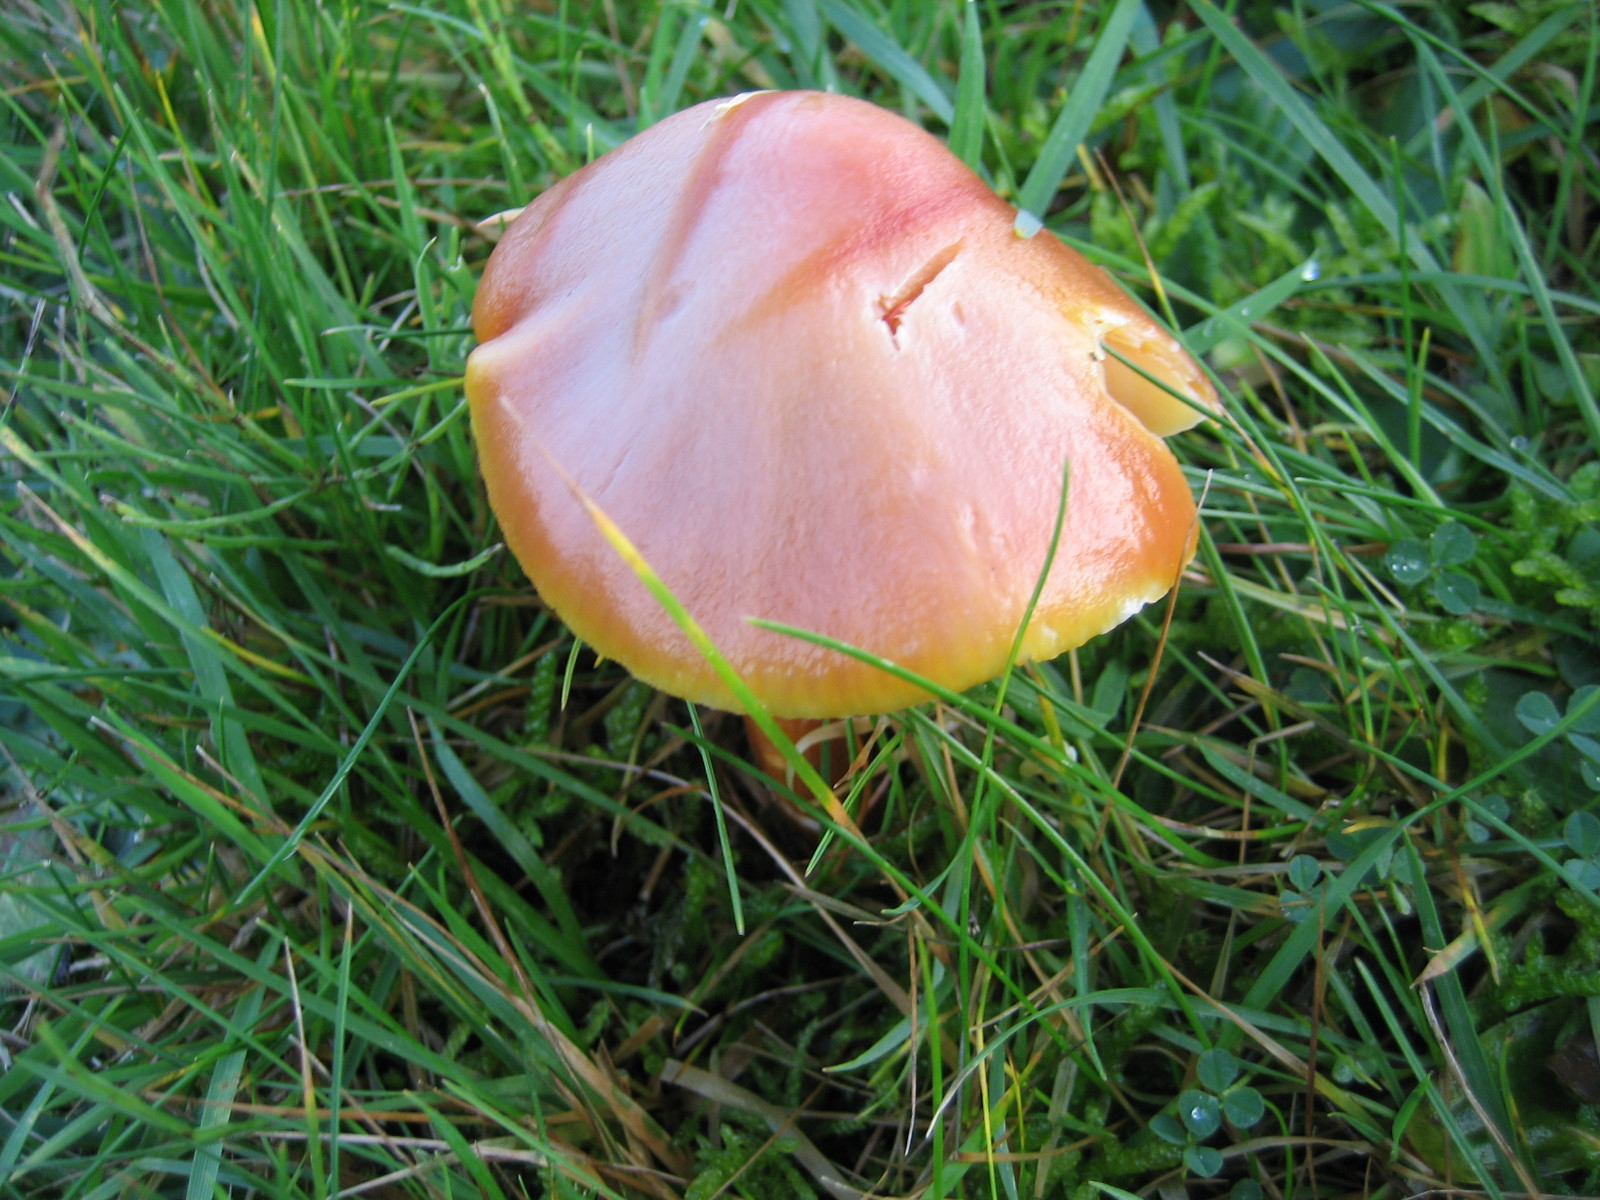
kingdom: Fungi
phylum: Basidiomycota
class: Agaricomycetes
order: Agaricales
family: Hygrophoraceae
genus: Hygrocybe
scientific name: Hygrocybe punicea
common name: skarlagen-vokshat
